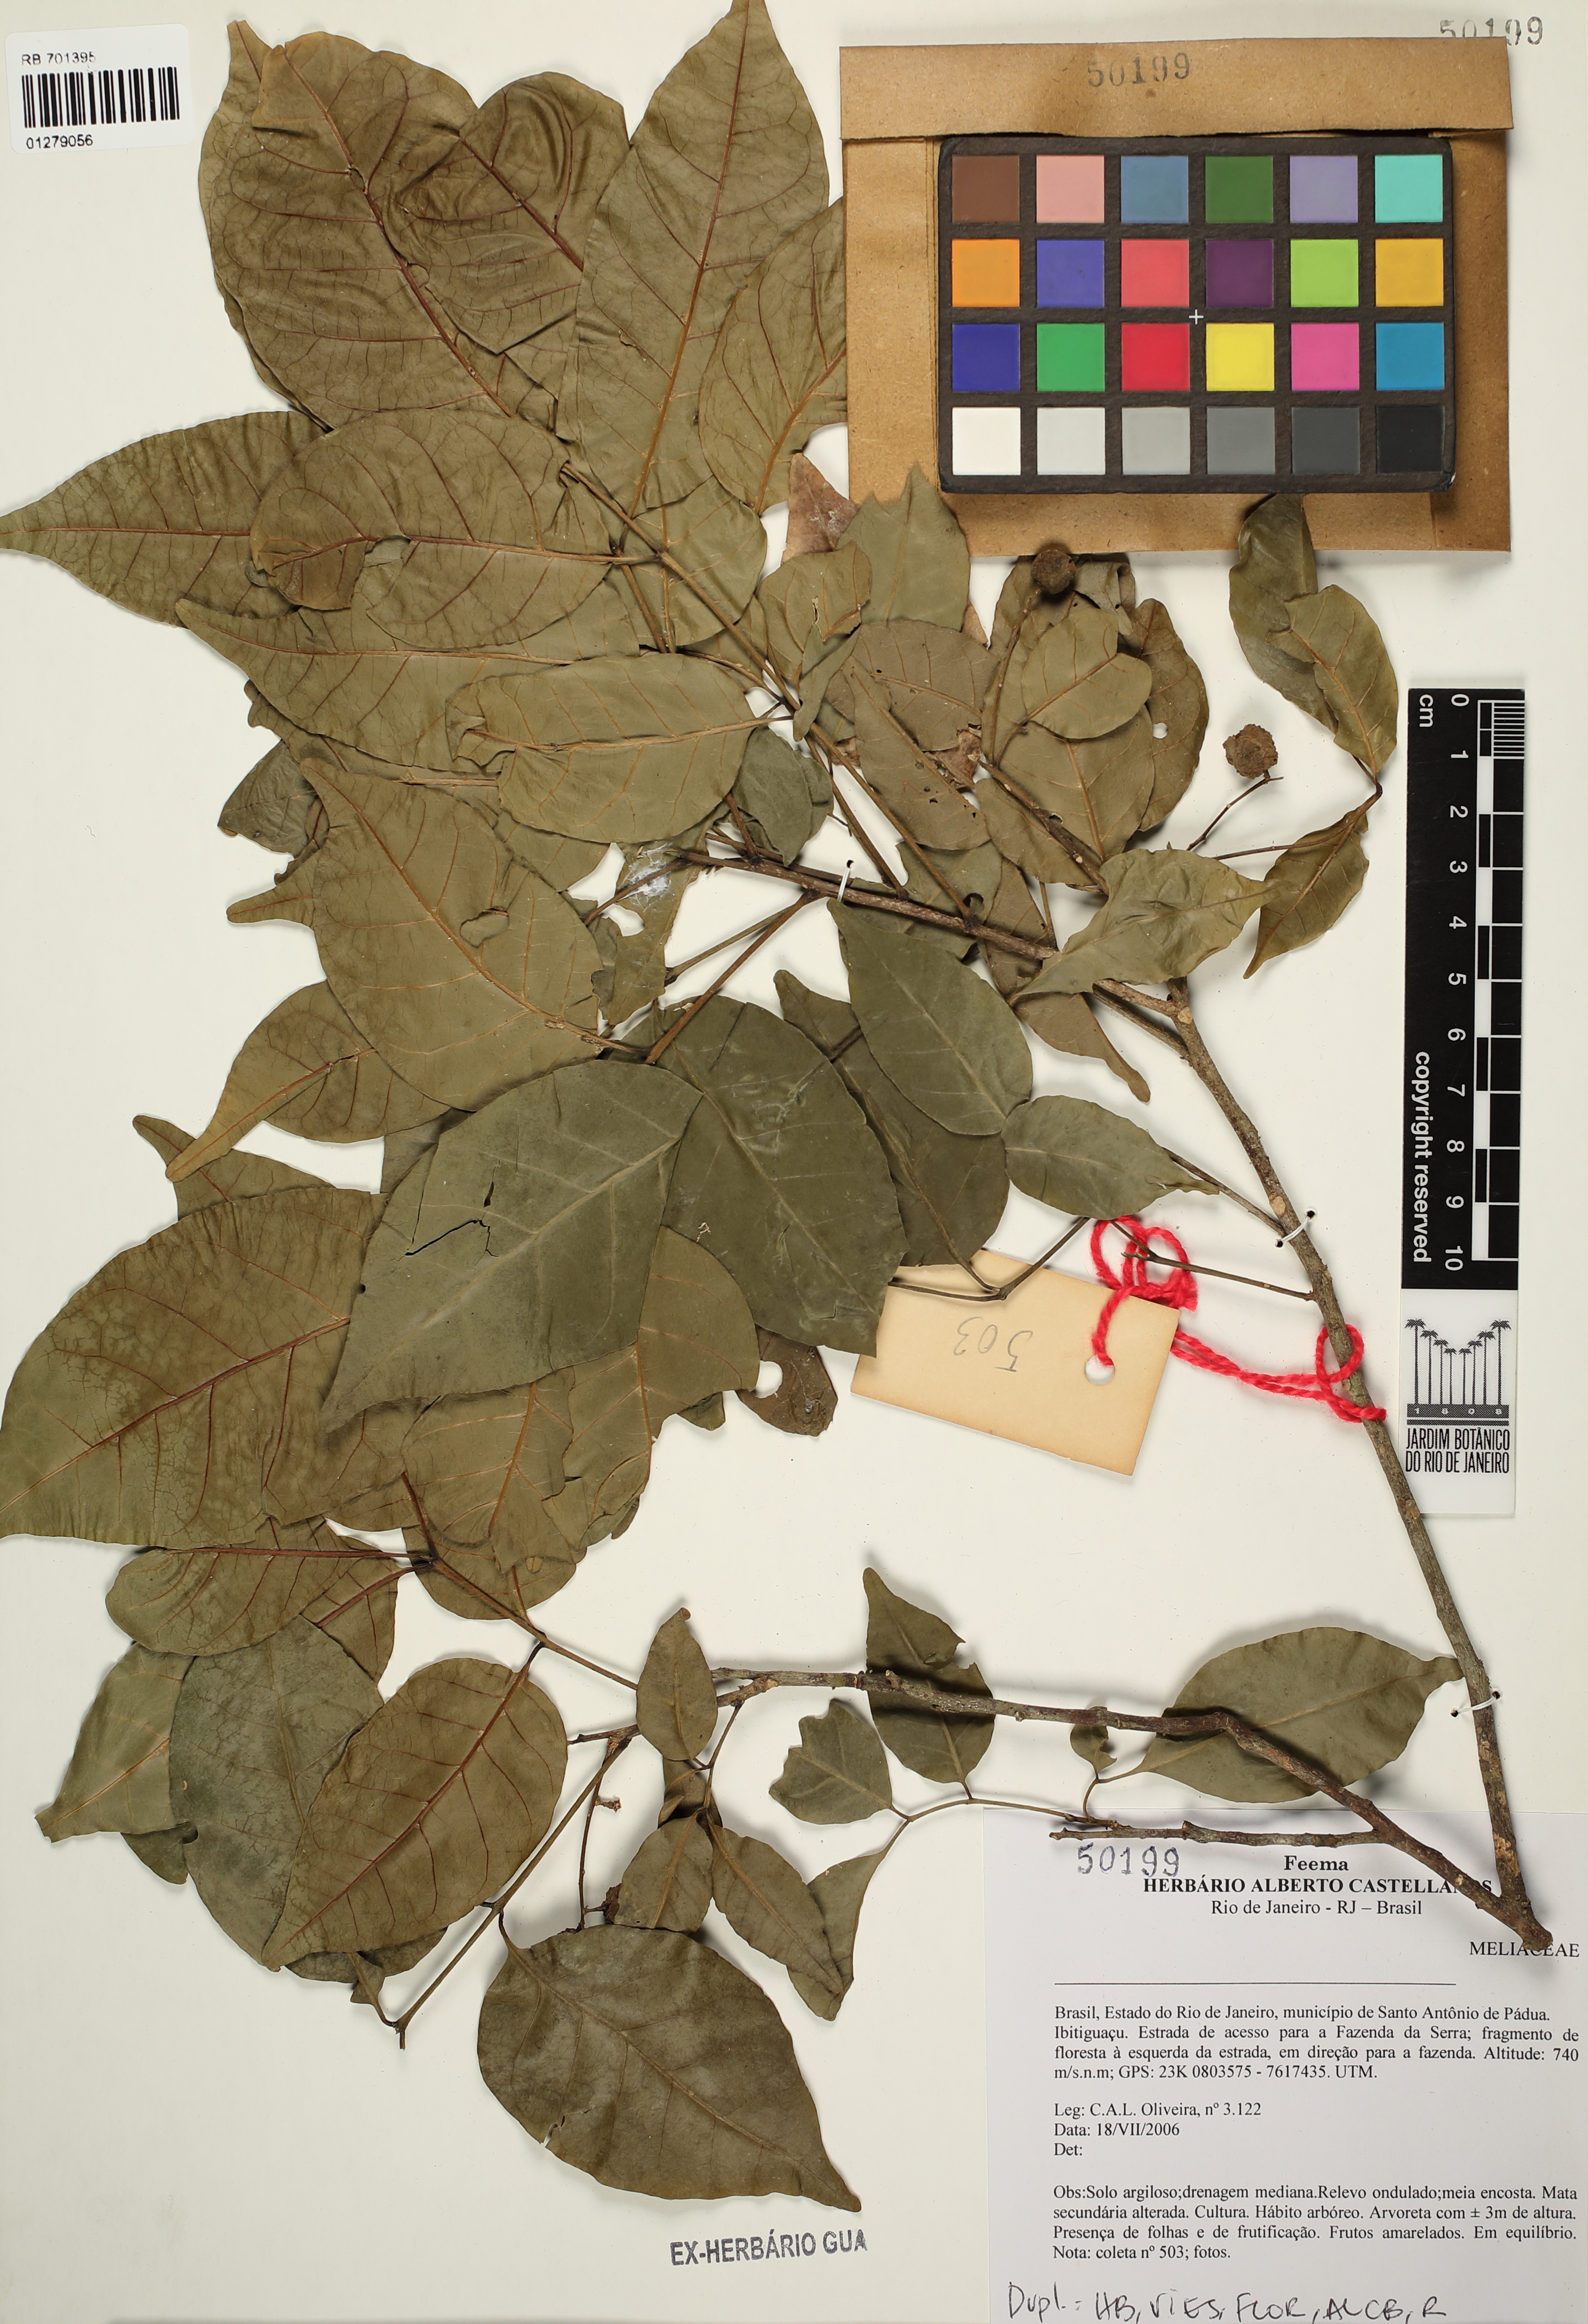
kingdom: Plantae
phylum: Tracheophyta
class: Magnoliopsida
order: Sapindales
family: Meliaceae
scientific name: Meliaceae
